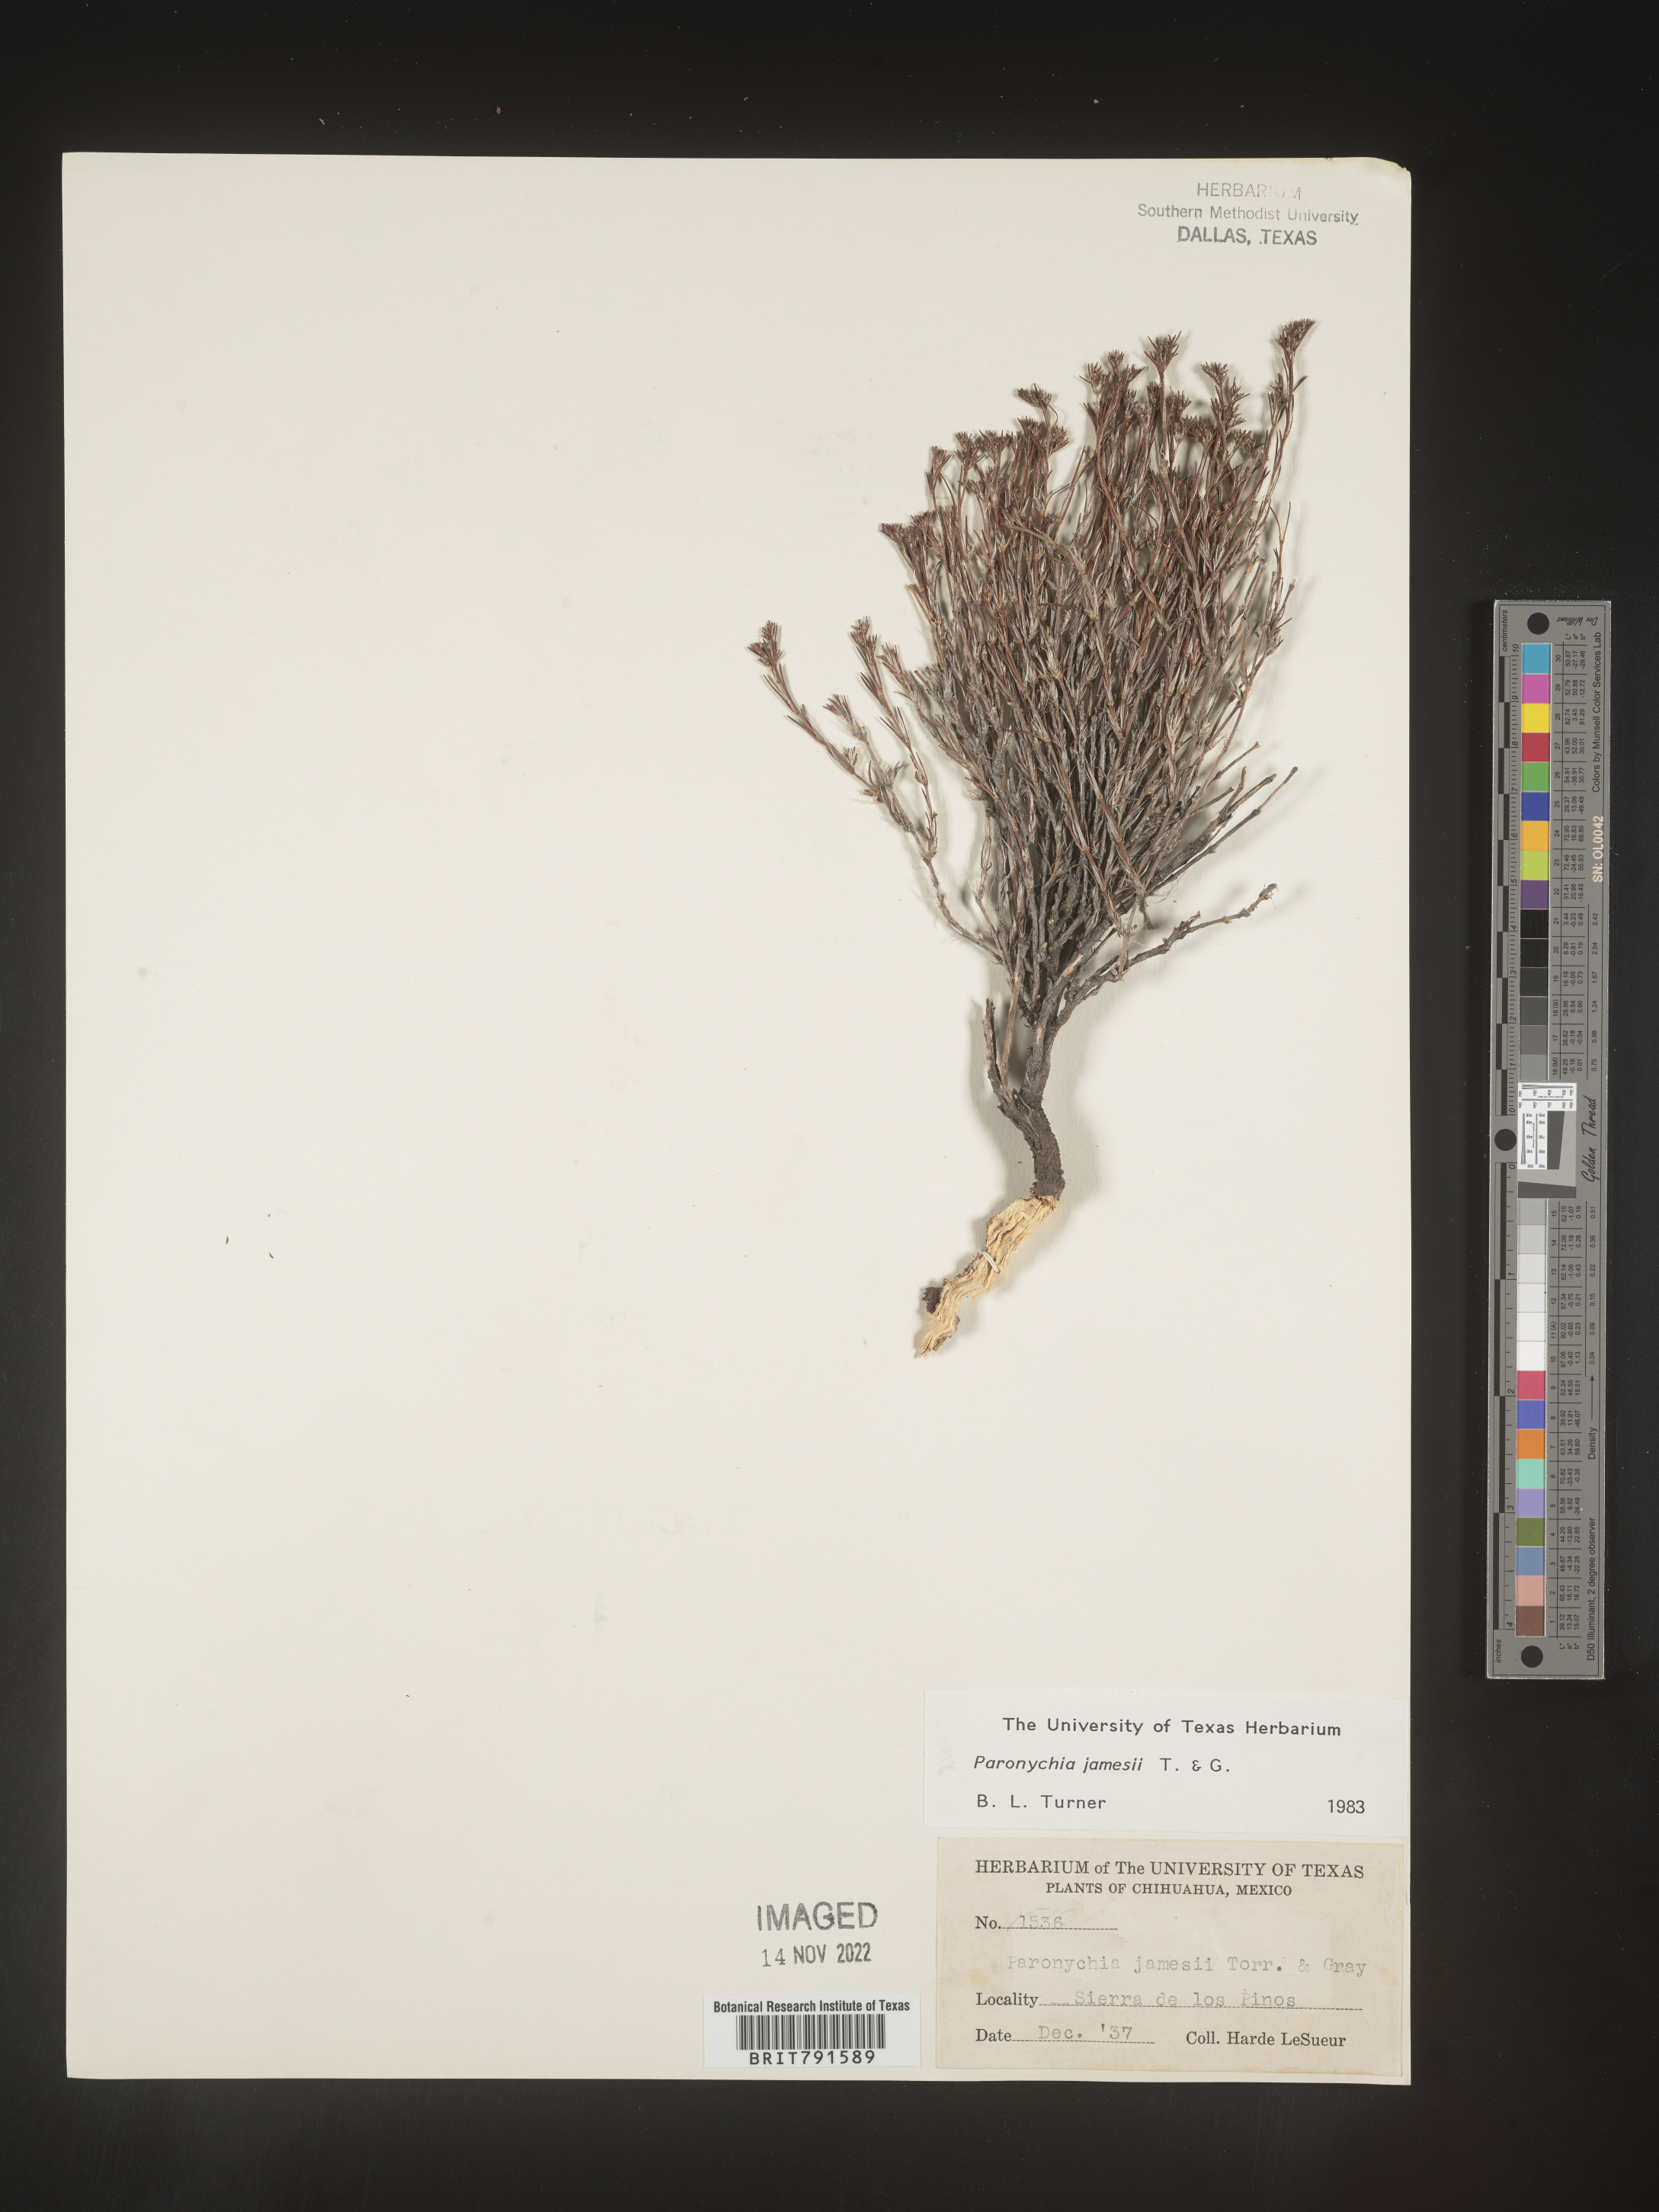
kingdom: Plantae
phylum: Tracheophyta
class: Magnoliopsida
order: Caryophyllales
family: Caryophyllaceae
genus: Paronychia
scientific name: Paronychia
